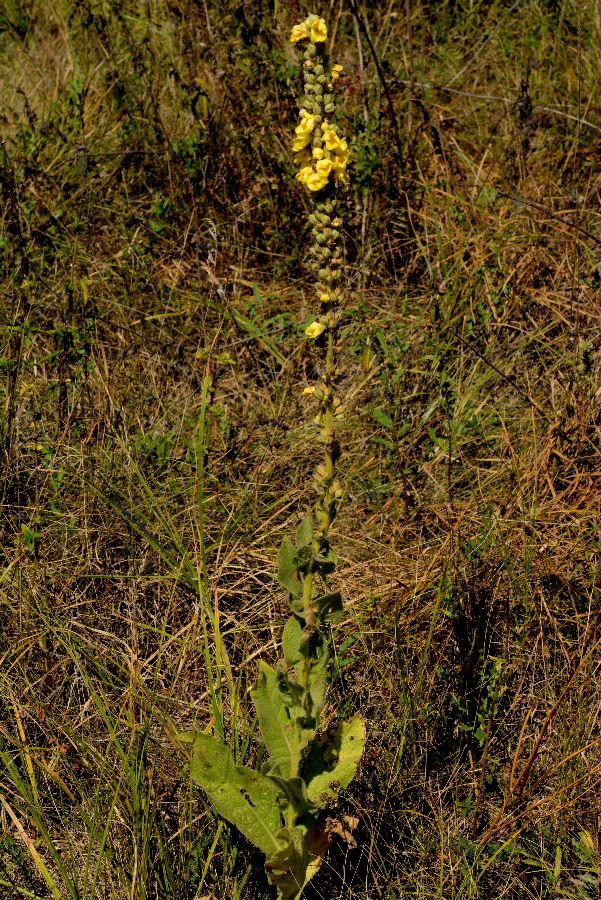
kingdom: Plantae
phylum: Tracheophyta
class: Magnoliopsida
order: Lamiales
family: Scrophulariaceae
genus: Verbascum
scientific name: Verbascum densiflorum
